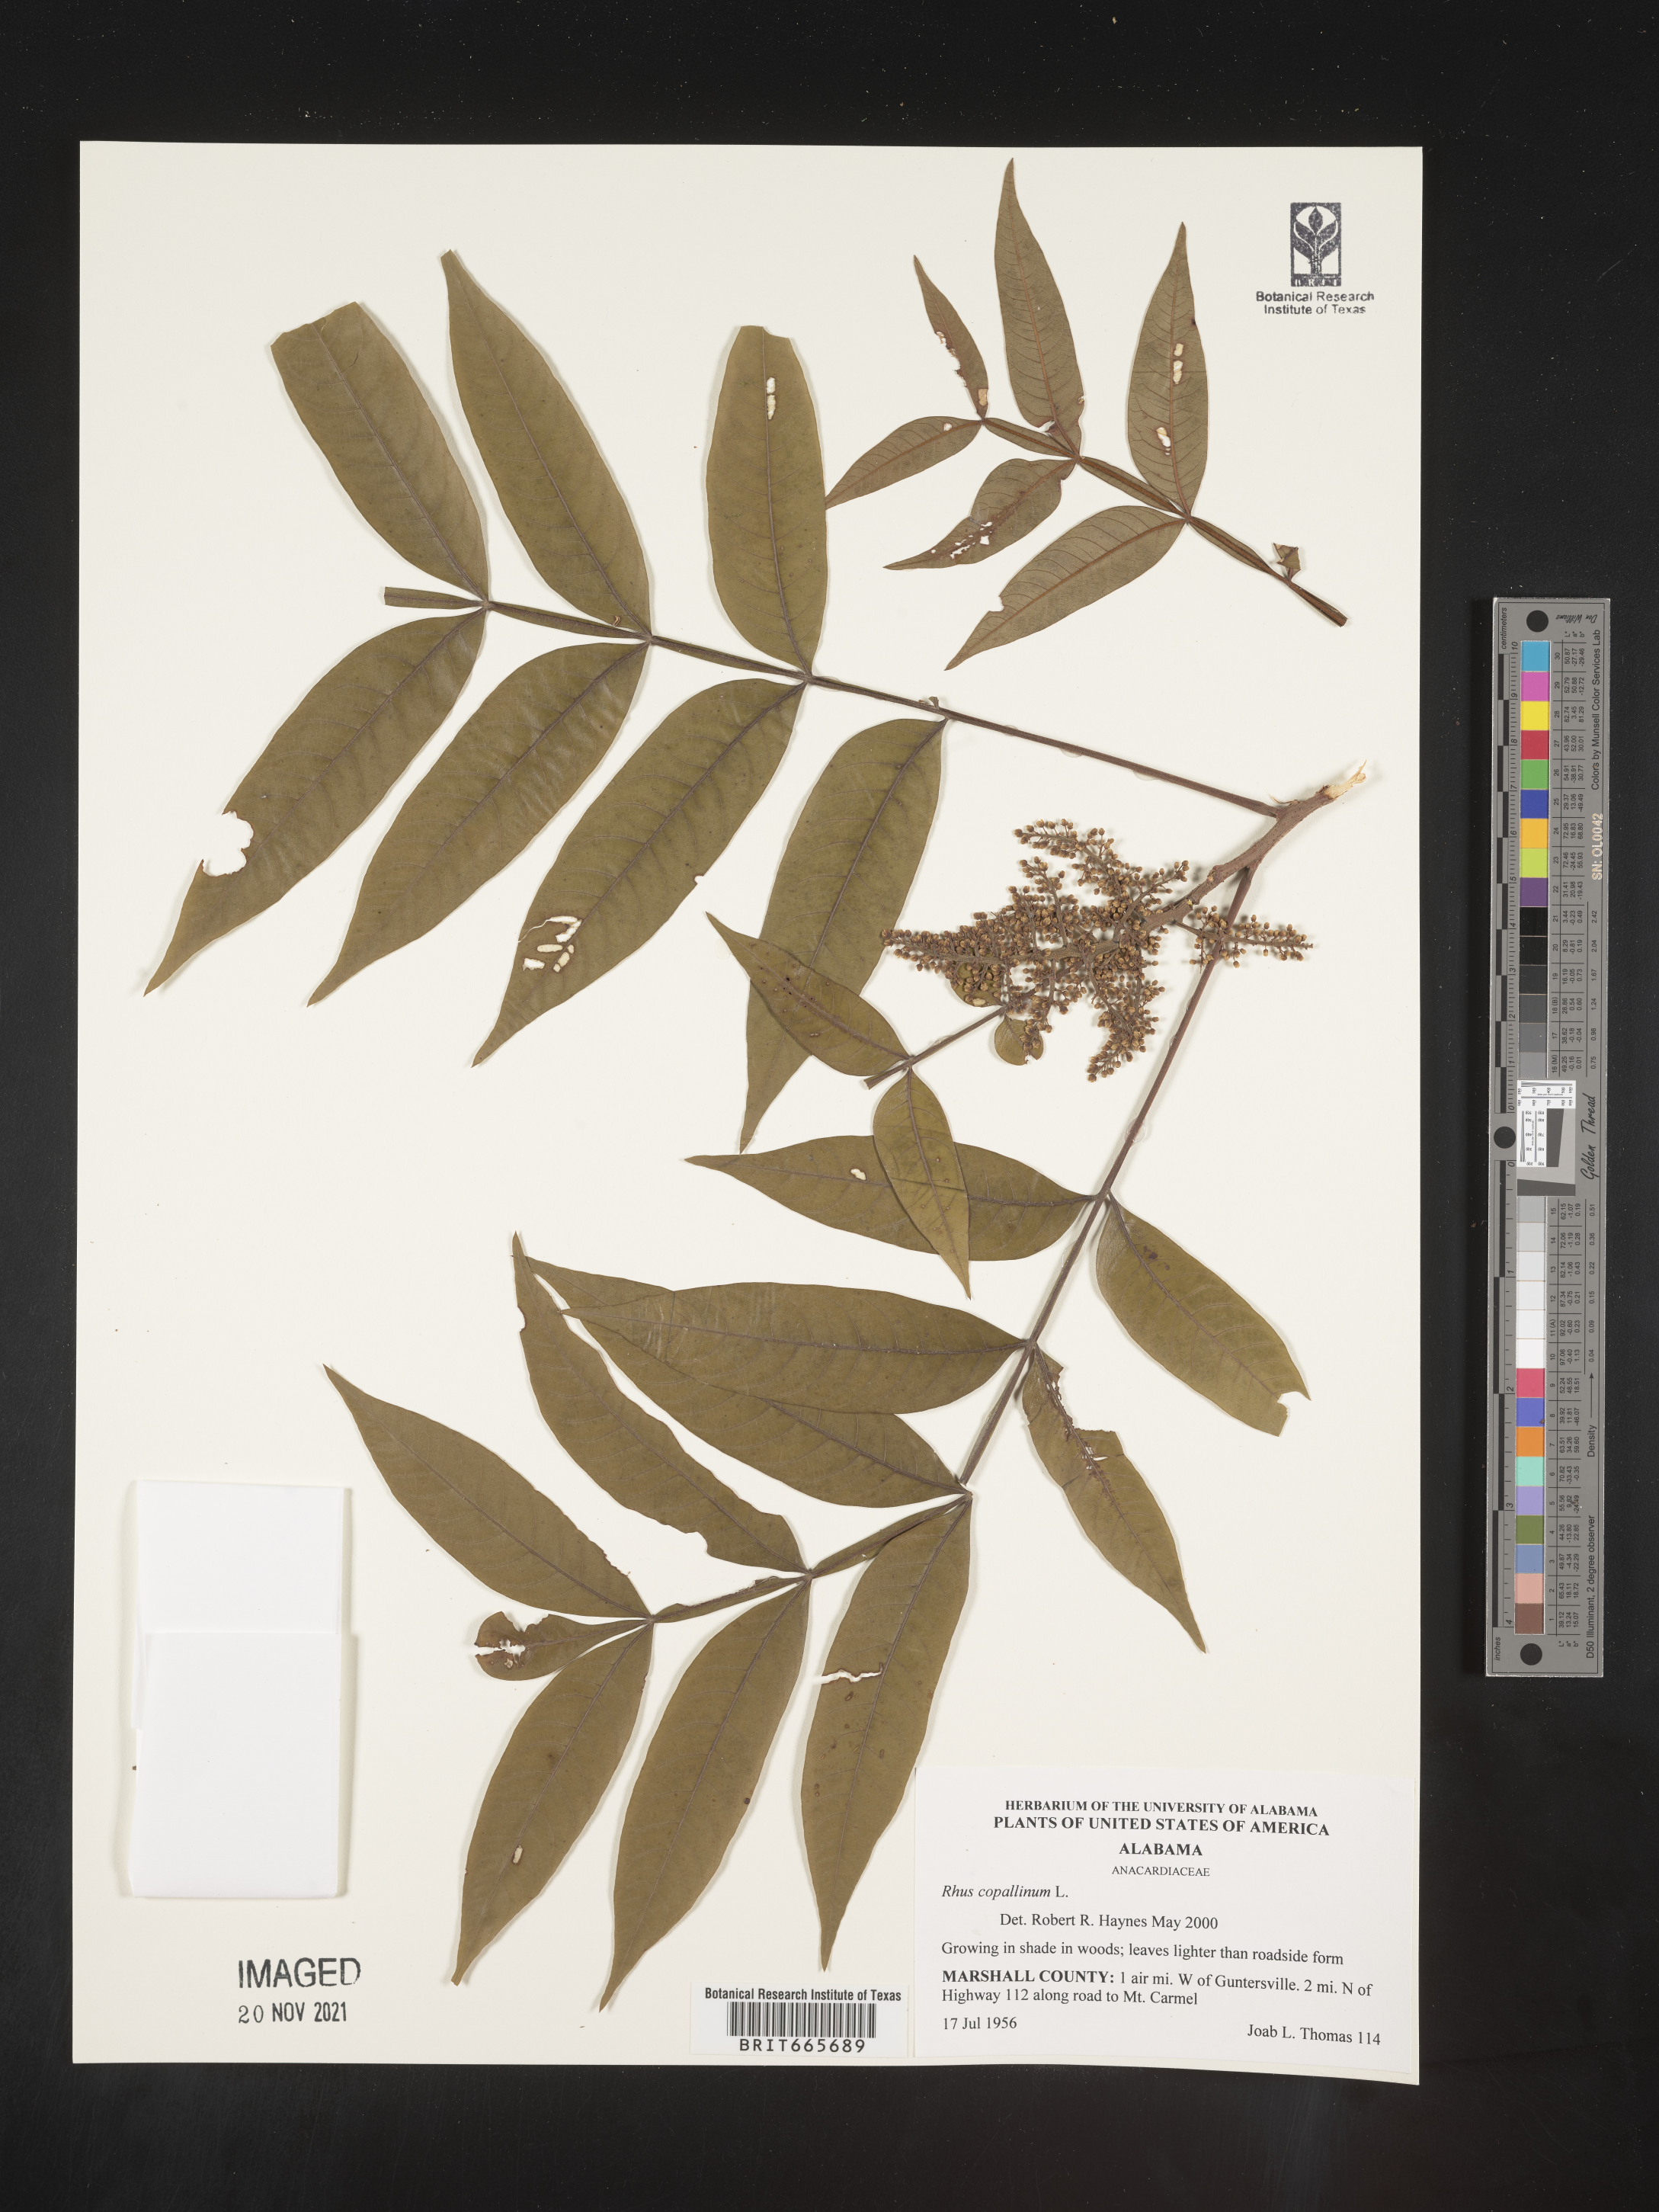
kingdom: Plantae
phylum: Tracheophyta
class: Magnoliopsida
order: Sapindales
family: Anacardiaceae
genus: Rhus
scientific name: Rhus copallina
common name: Shining sumac
